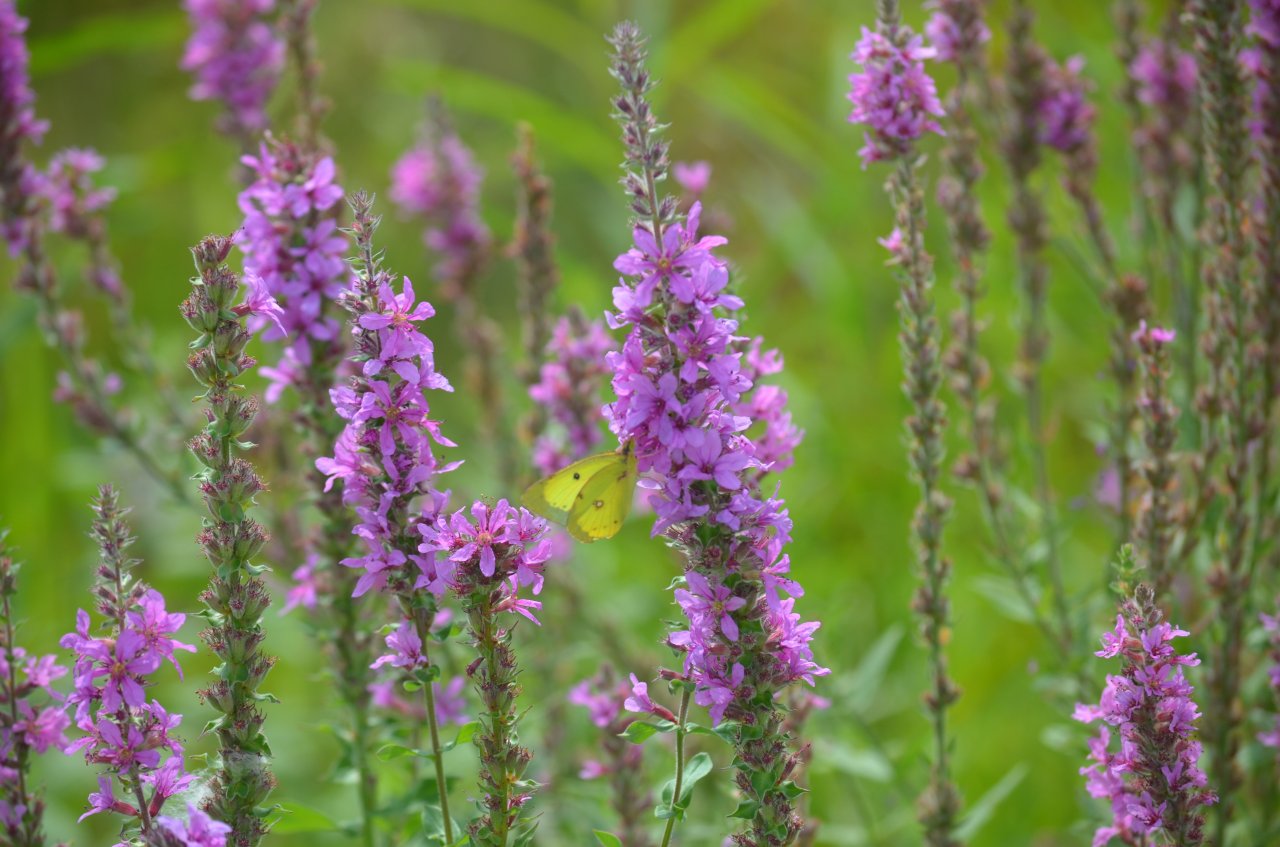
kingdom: Animalia
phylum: Arthropoda
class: Insecta
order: Lepidoptera
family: Pieridae
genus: Colias
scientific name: Colias philodice
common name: Clouded Sulphur
